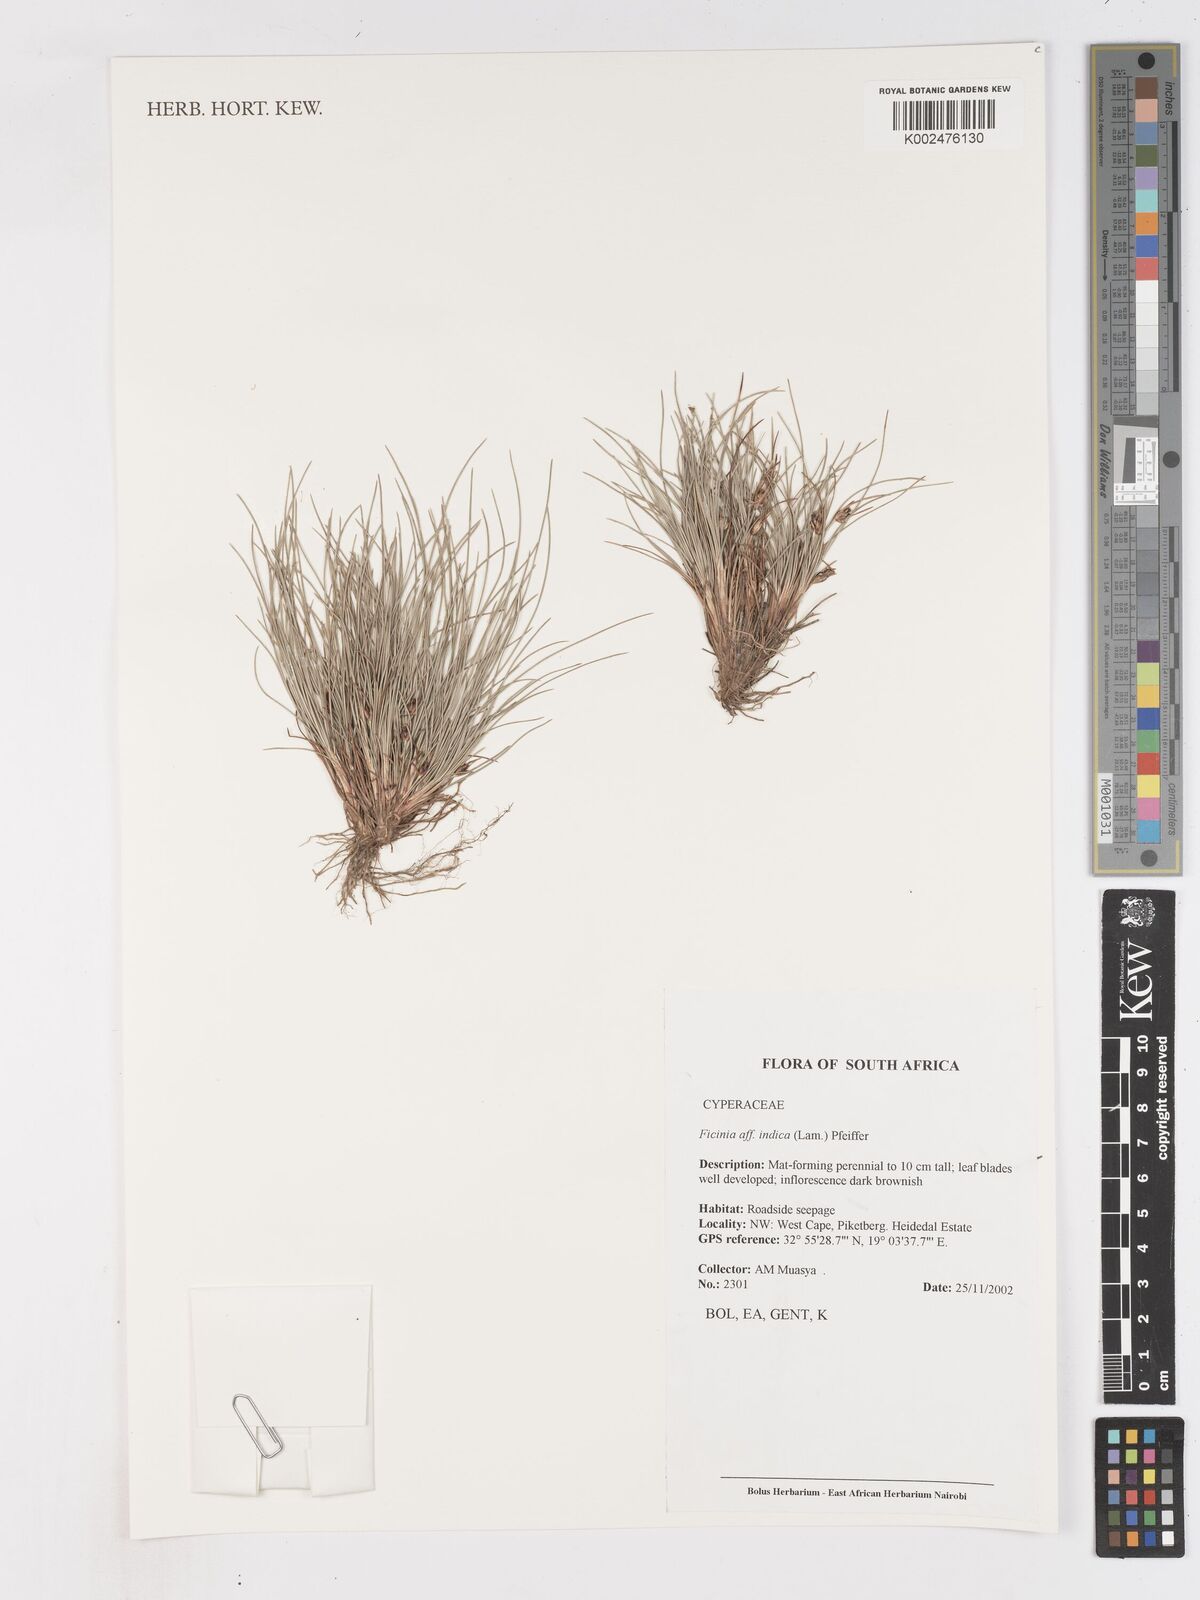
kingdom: Plantae
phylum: Tracheophyta
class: Liliopsida
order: Poales
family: Cyperaceae
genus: Ficinia
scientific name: Ficinia indica
